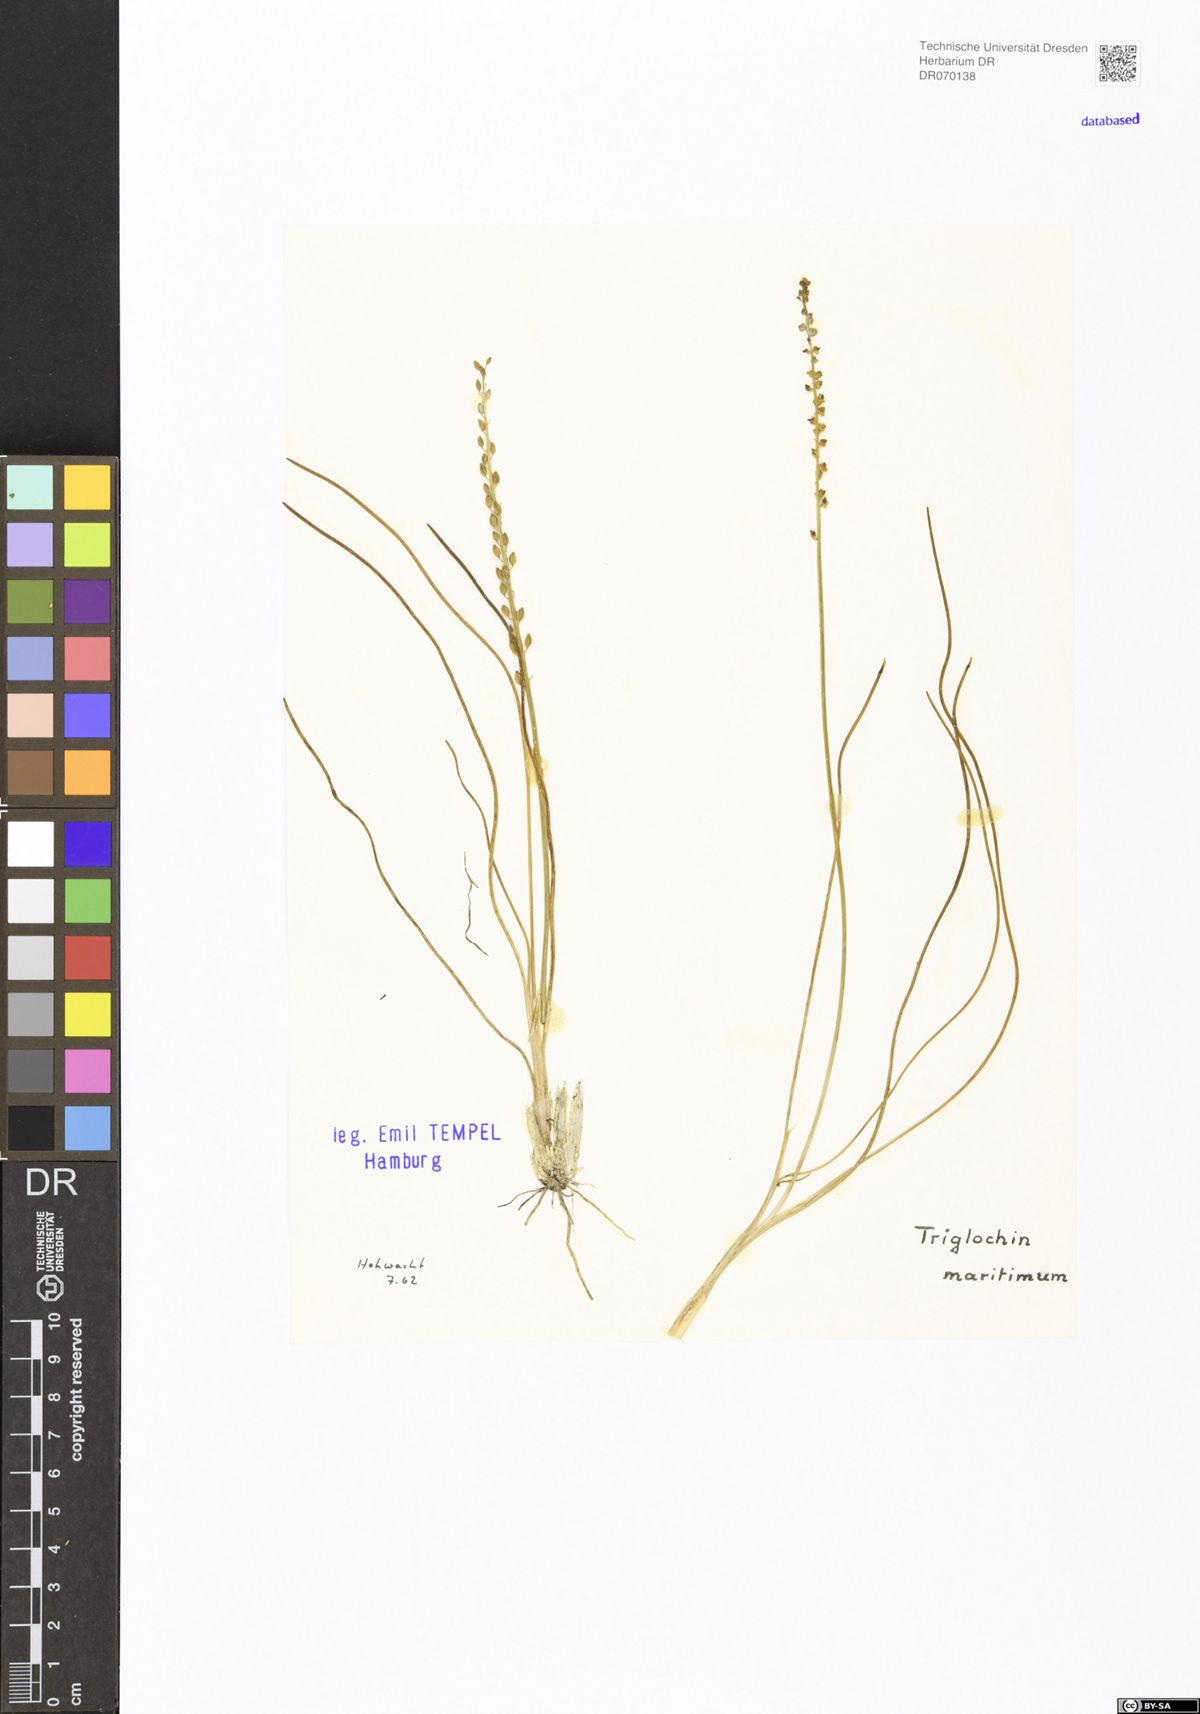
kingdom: Plantae
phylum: Tracheophyta
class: Liliopsida
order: Alismatales
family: Juncaginaceae
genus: Triglochin
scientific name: Triglochin maritima
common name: Sea arrowgrass
